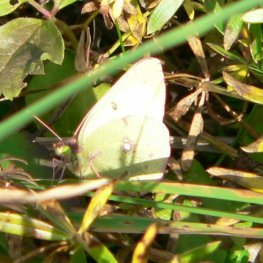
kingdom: Animalia
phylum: Arthropoda
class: Insecta
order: Lepidoptera
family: Pieridae
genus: Colias
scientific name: Colias philodice
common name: Clouded Sulphur
